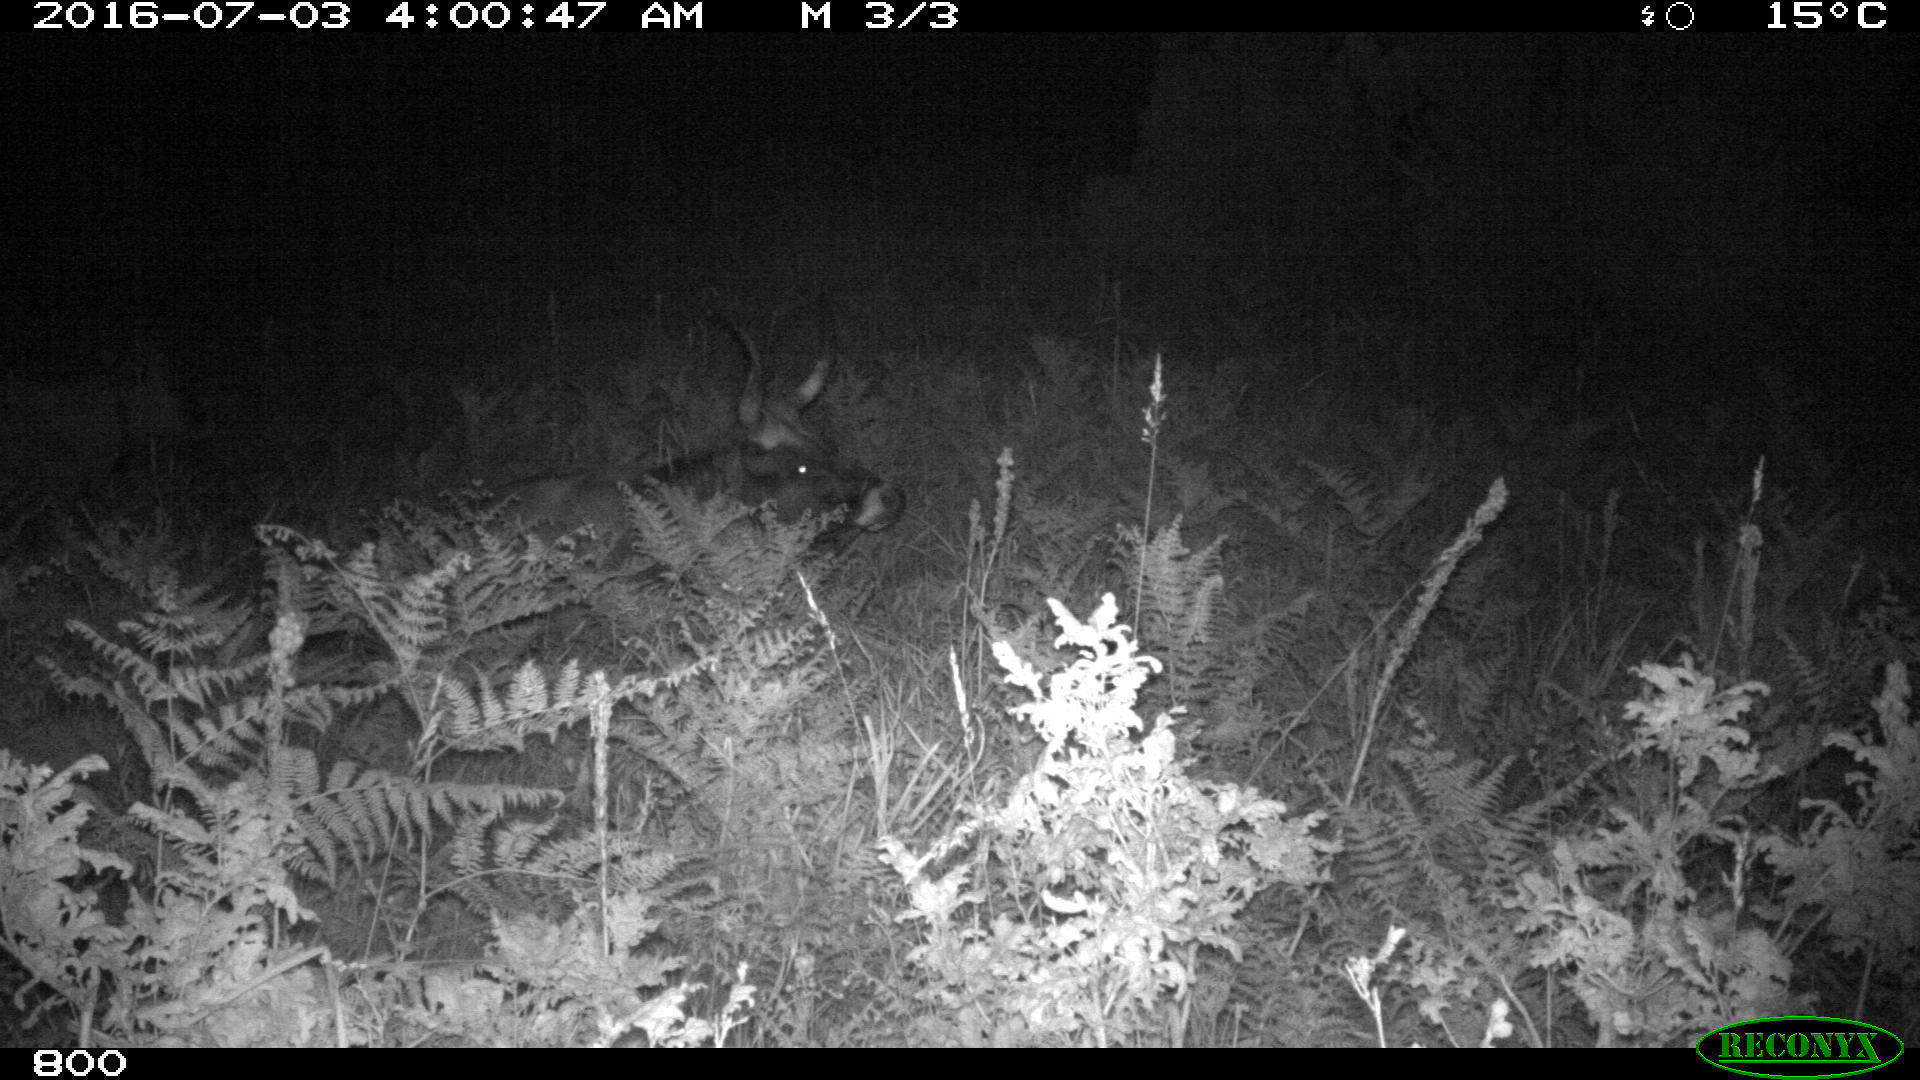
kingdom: Animalia
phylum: Chordata
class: Mammalia
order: Artiodactyla
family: Bovidae
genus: Bos
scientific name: Bos taurus
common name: Domesticated cattle
